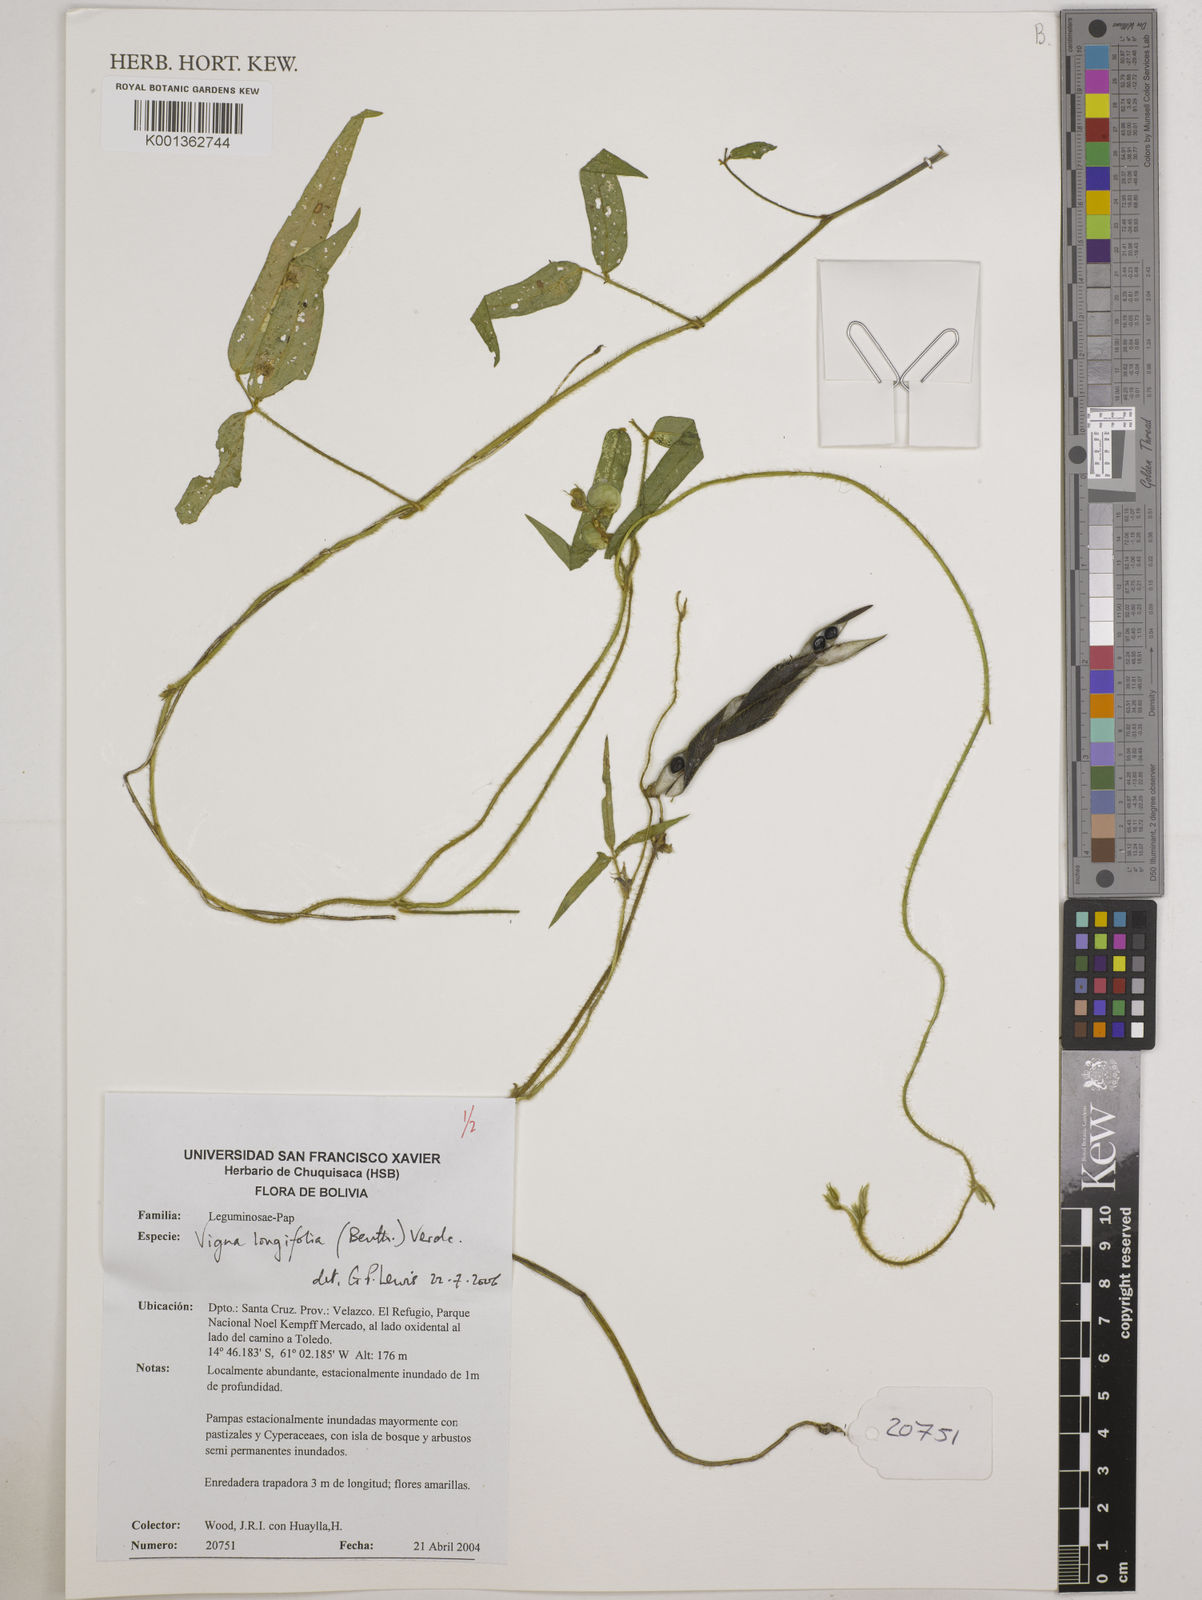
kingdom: Plantae
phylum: Tracheophyta
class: Magnoliopsida
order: Fabales
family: Fabaceae
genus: Vigna
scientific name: Vigna longifolia
